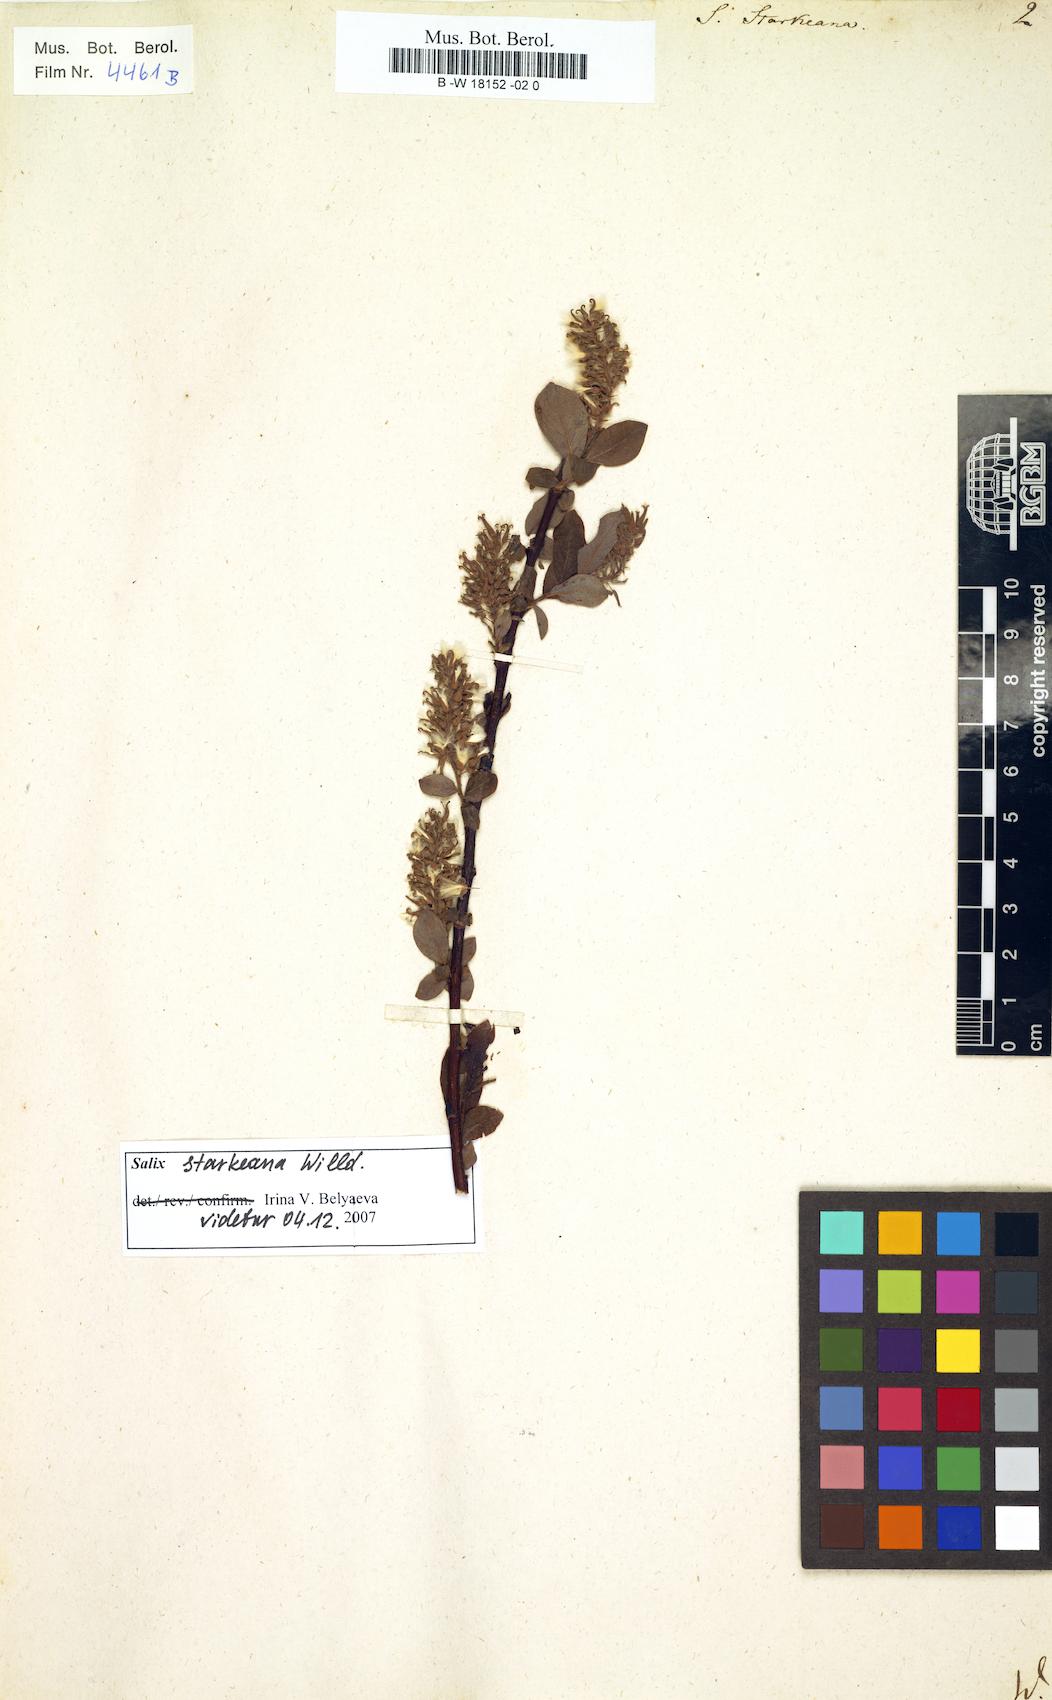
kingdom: Plantae
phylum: Tracheophyta
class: Magnoliopsida
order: Malpighiales
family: Salicaceae
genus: Salix
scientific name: Salix starkeana
